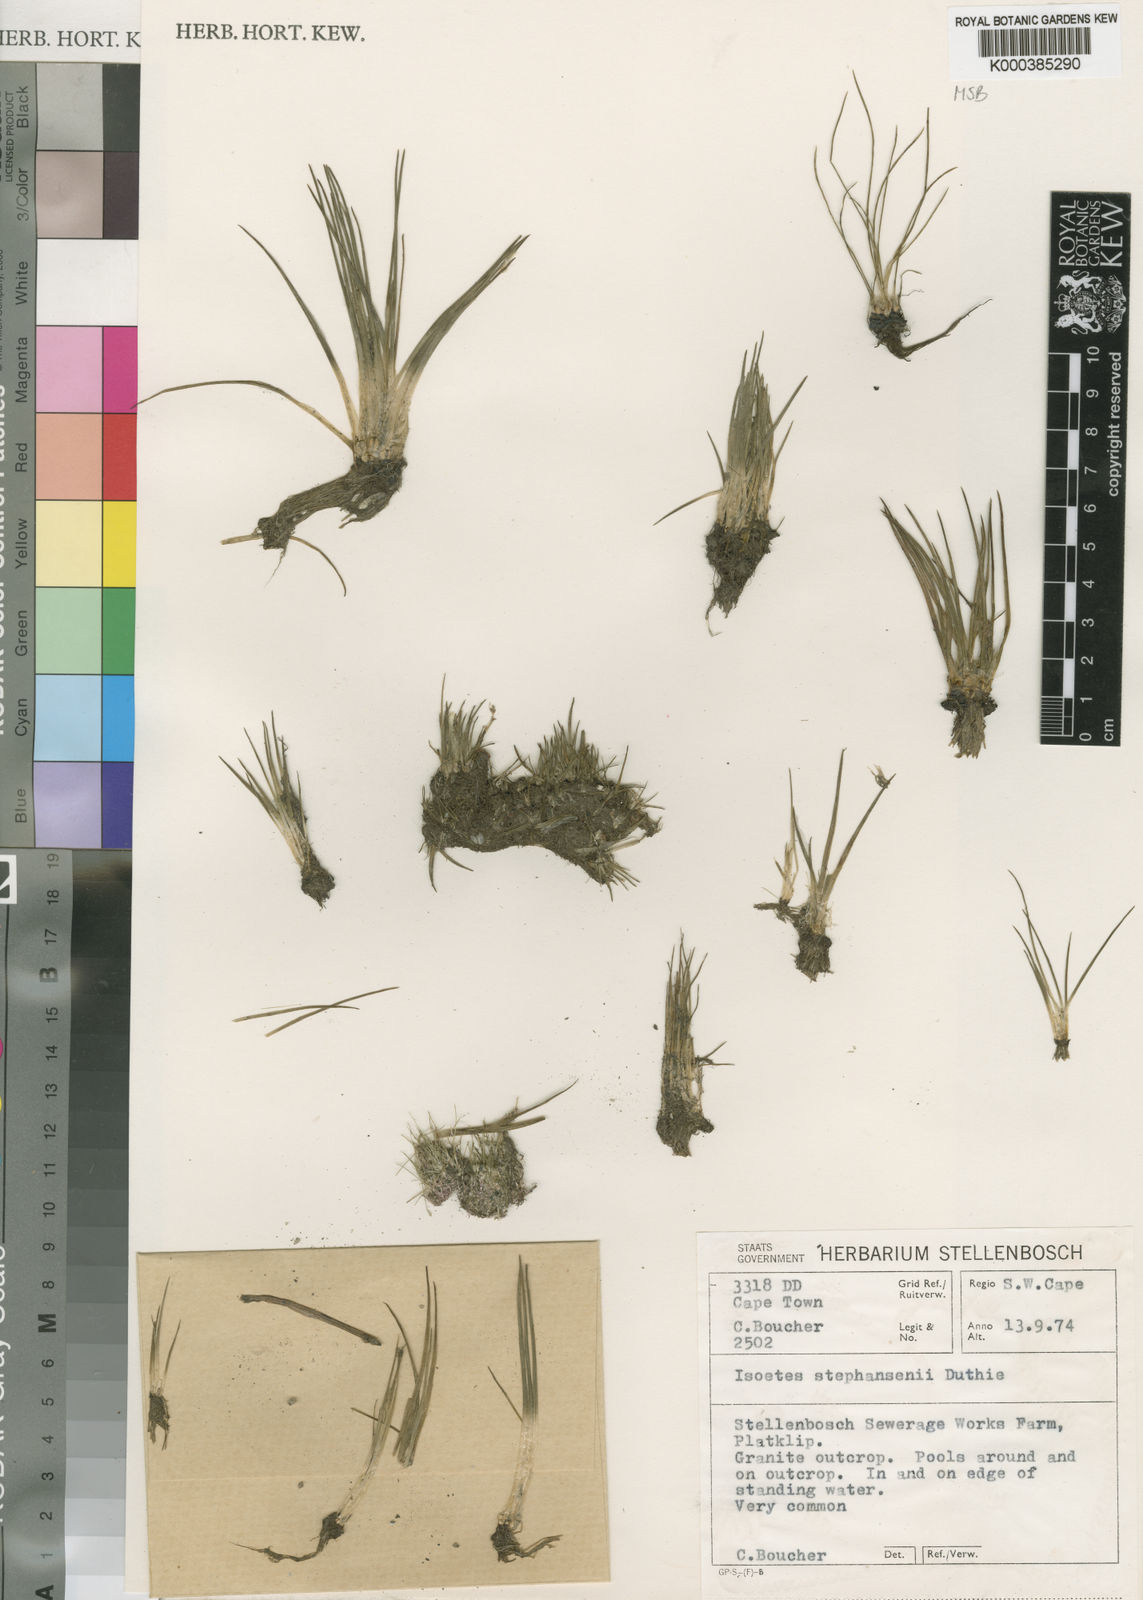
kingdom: Plantae
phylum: Tracheophyta
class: Lycopodiopsida
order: Isoetales
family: Isoetaceae
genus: Isoetes
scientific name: Isoetes stephanseniae
